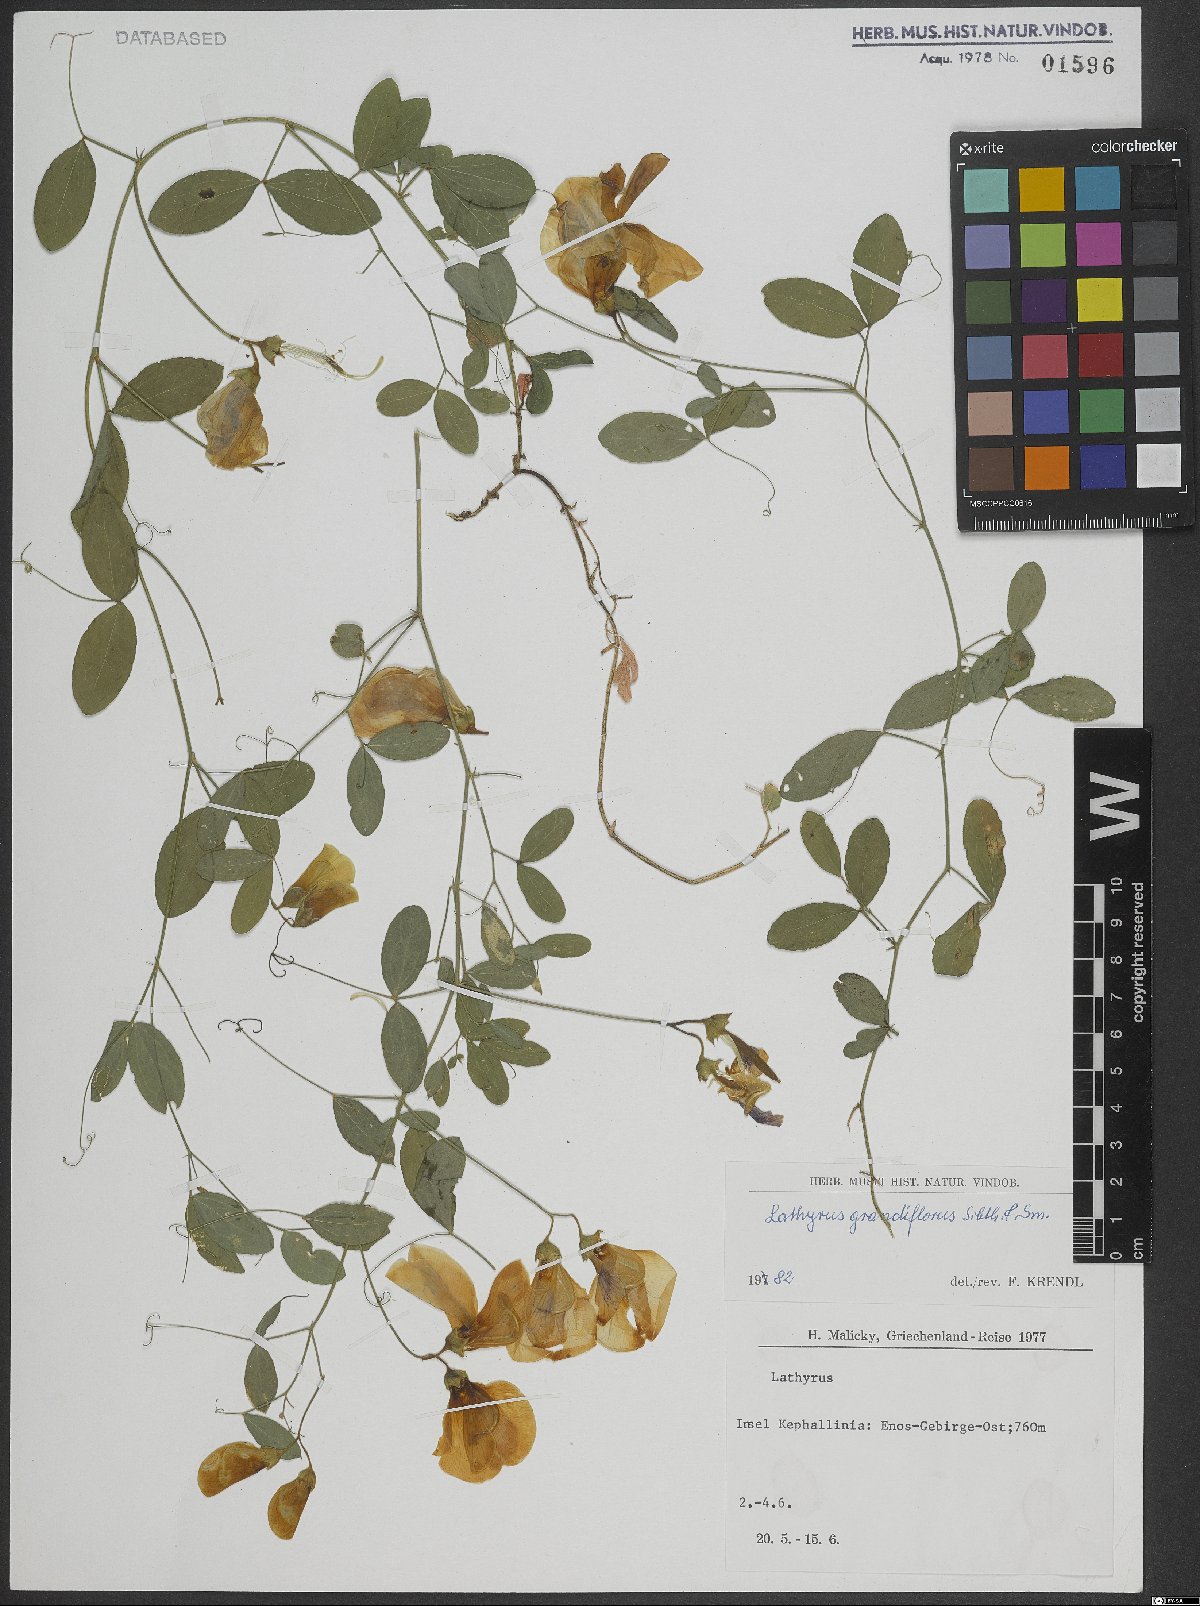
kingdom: Plantae
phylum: Tracheophyta
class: Magnoliopsida
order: Fabales
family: Fabaceae
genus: Lathyrus
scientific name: Lathyrus grandiflorus
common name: Two-flowered everlasting-pea
